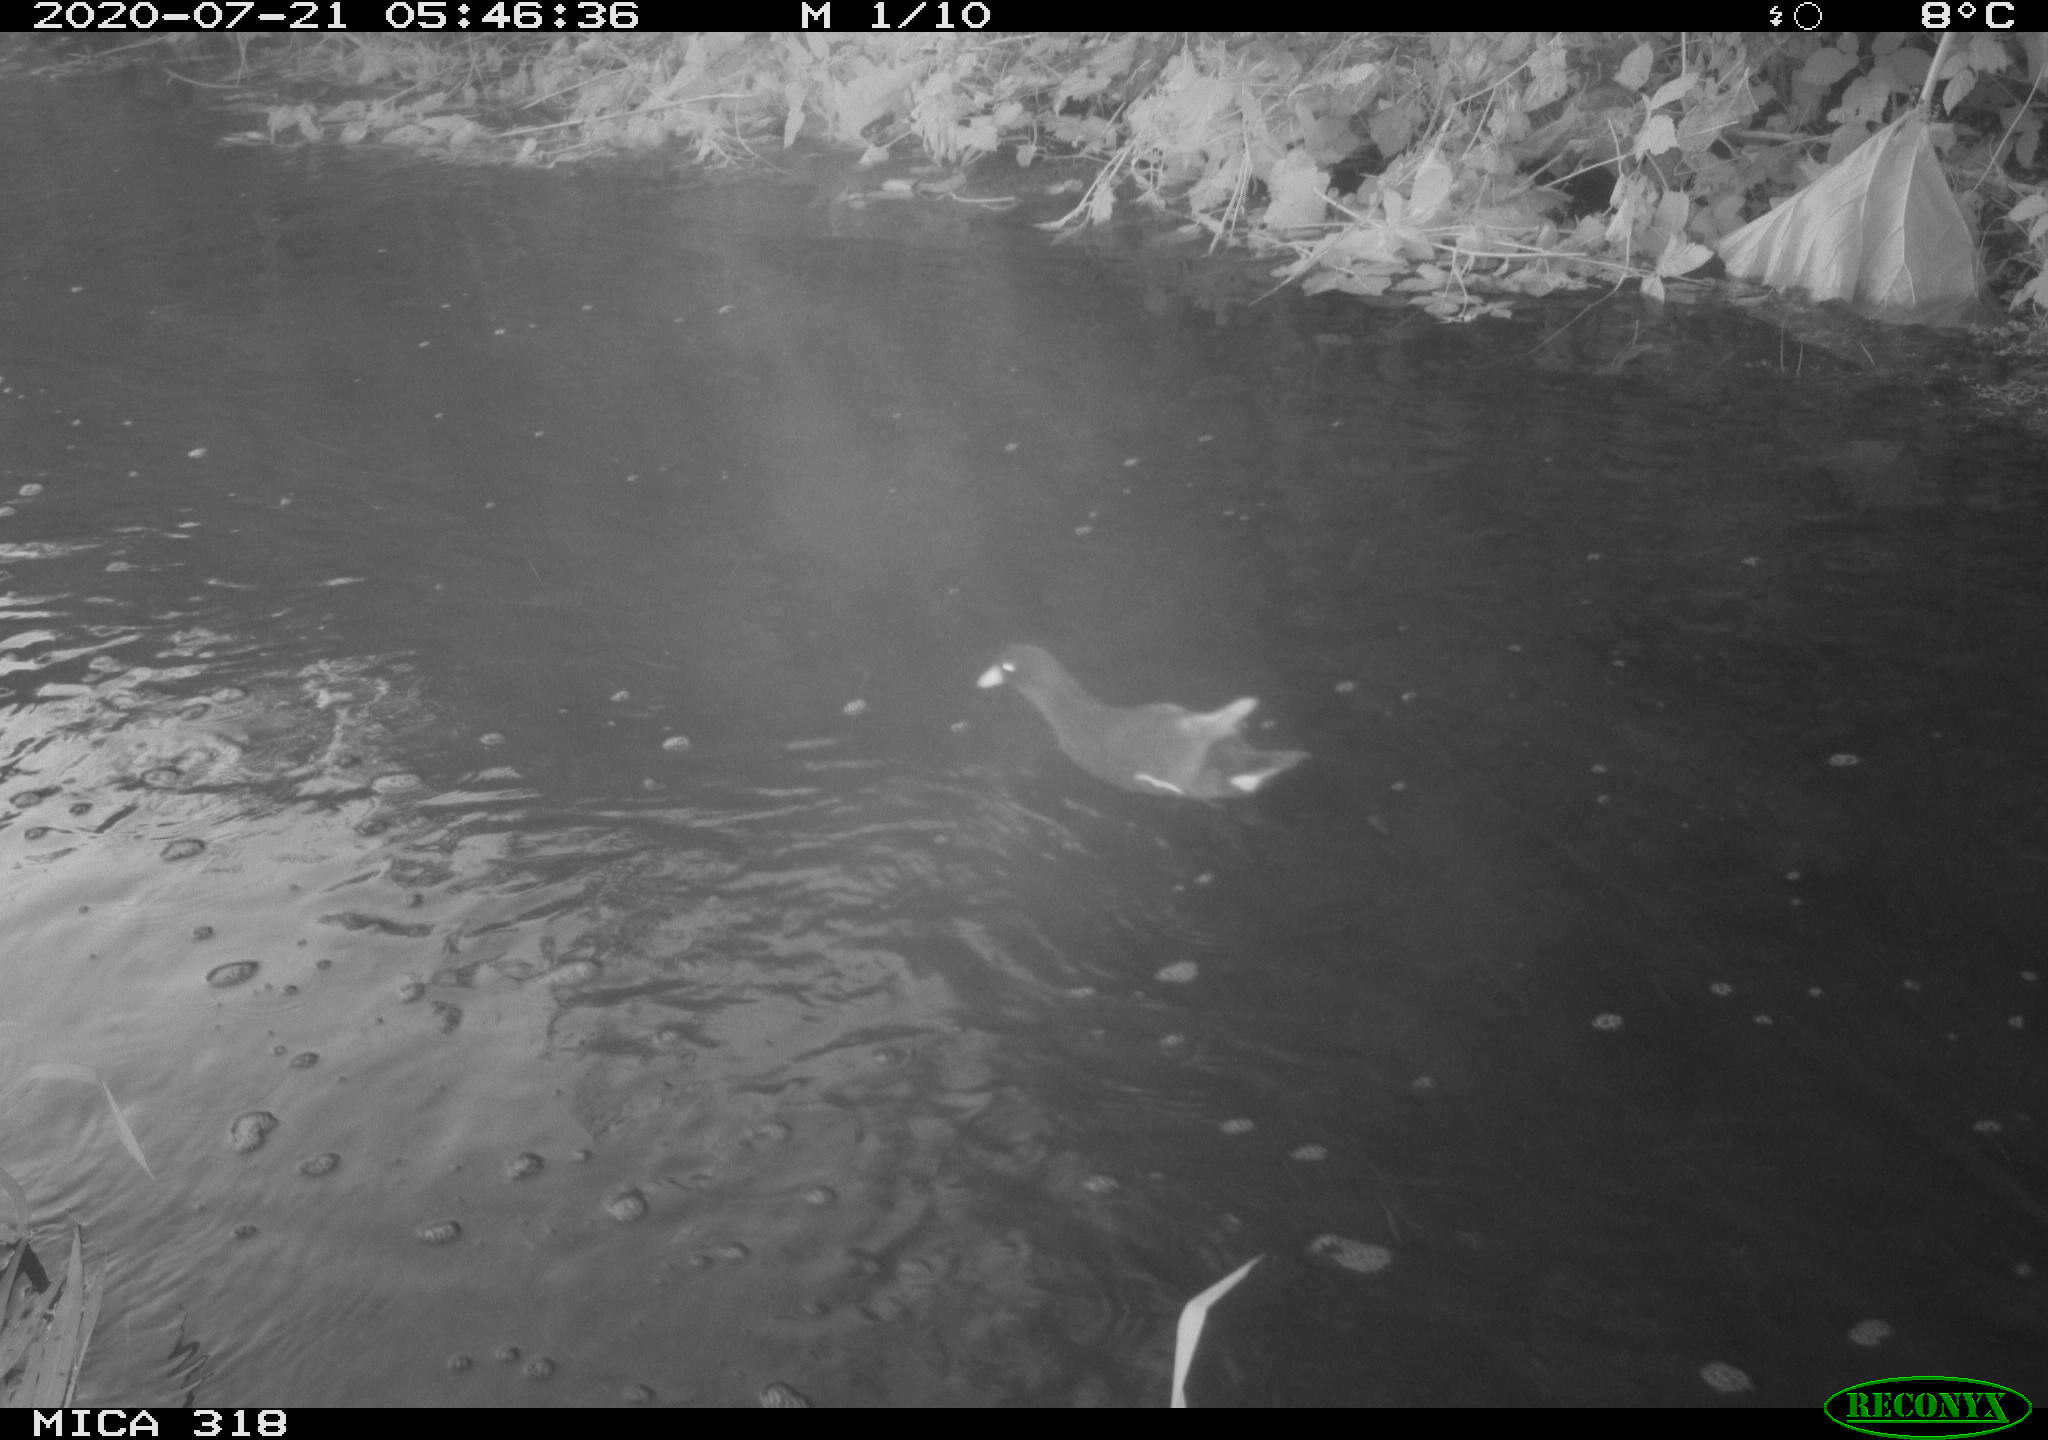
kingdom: Animalia
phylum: Chordata
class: Aves
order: Anseriformes
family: Anatidae
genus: Anas
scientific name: Anas platyrhynchos
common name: Mallard
